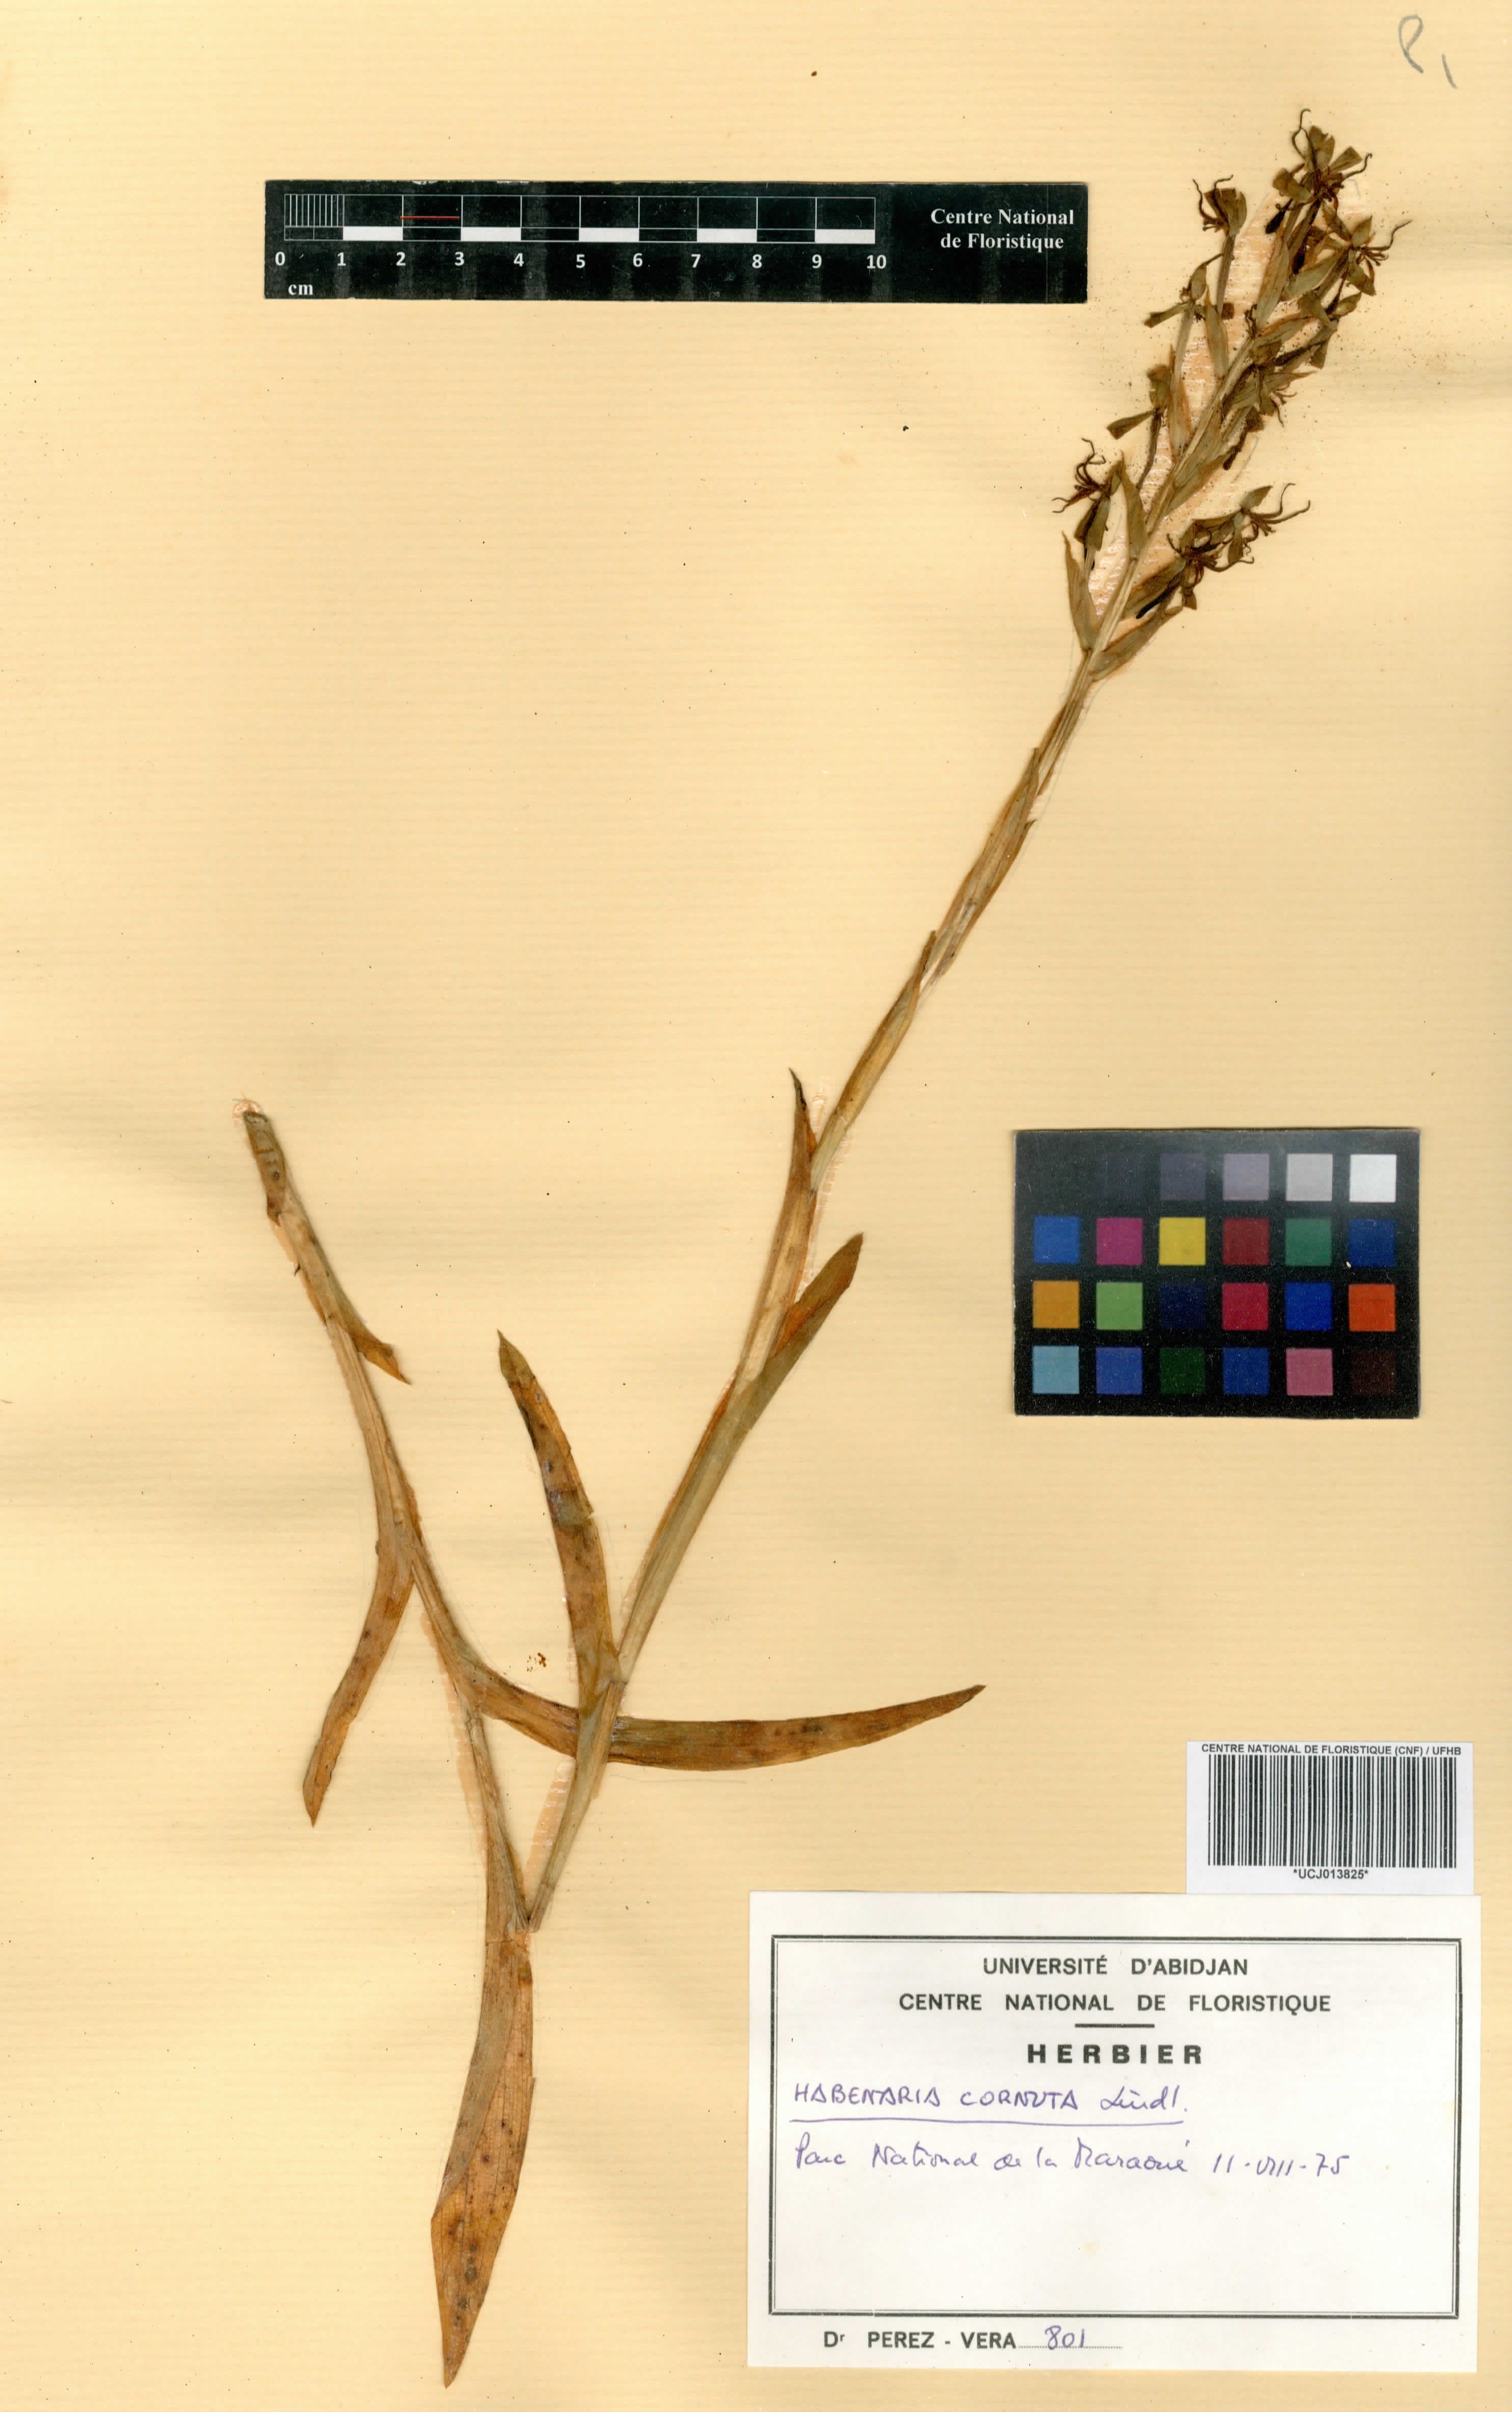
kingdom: Plantae
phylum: Tracheophyta
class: Liliopsida
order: Asparagales
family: Orchidaceae
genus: Habenaria
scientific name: Habenaria cornuta
